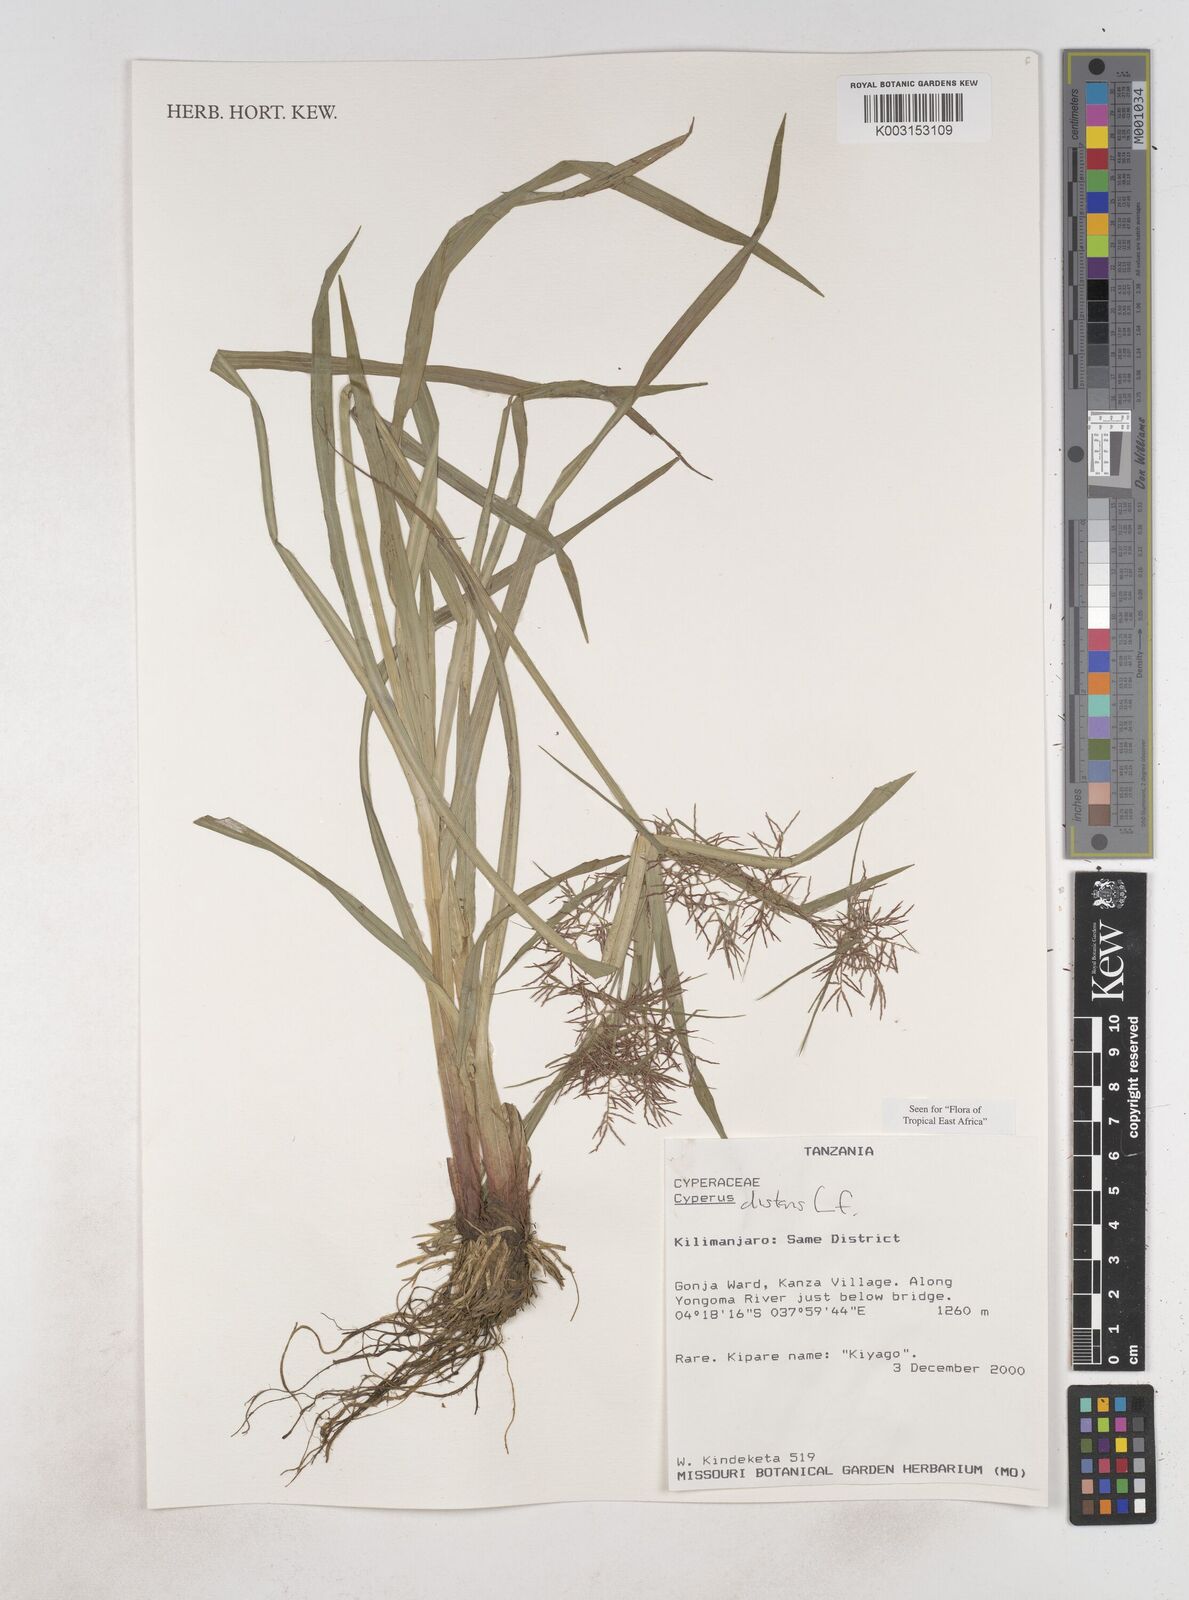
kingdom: Plantae
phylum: Tracheophyta
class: Liliopsida
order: Poales
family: Cyperaceae
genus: Cyperus
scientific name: Cyperus distans
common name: Slender cyperus
